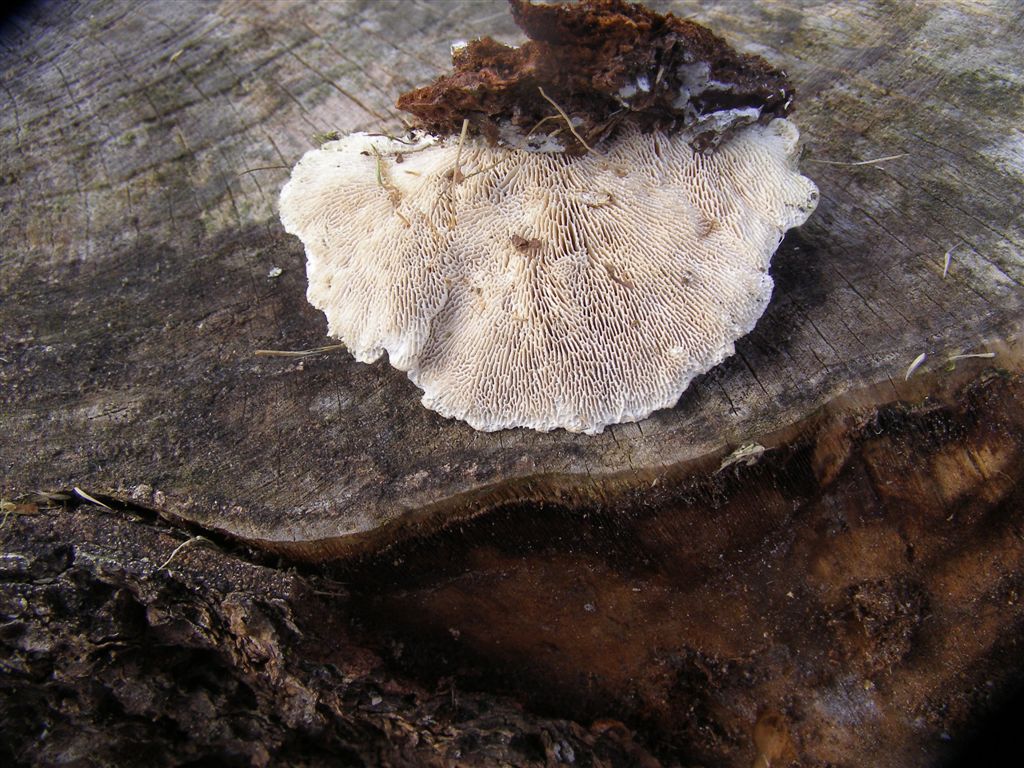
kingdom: Fungi
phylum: Basidiomycota
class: Agaricomycetes
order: Polyporales
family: Polyporaceae
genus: Lenzites
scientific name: Lenzites betulinus
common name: birke-læderporesvamp
